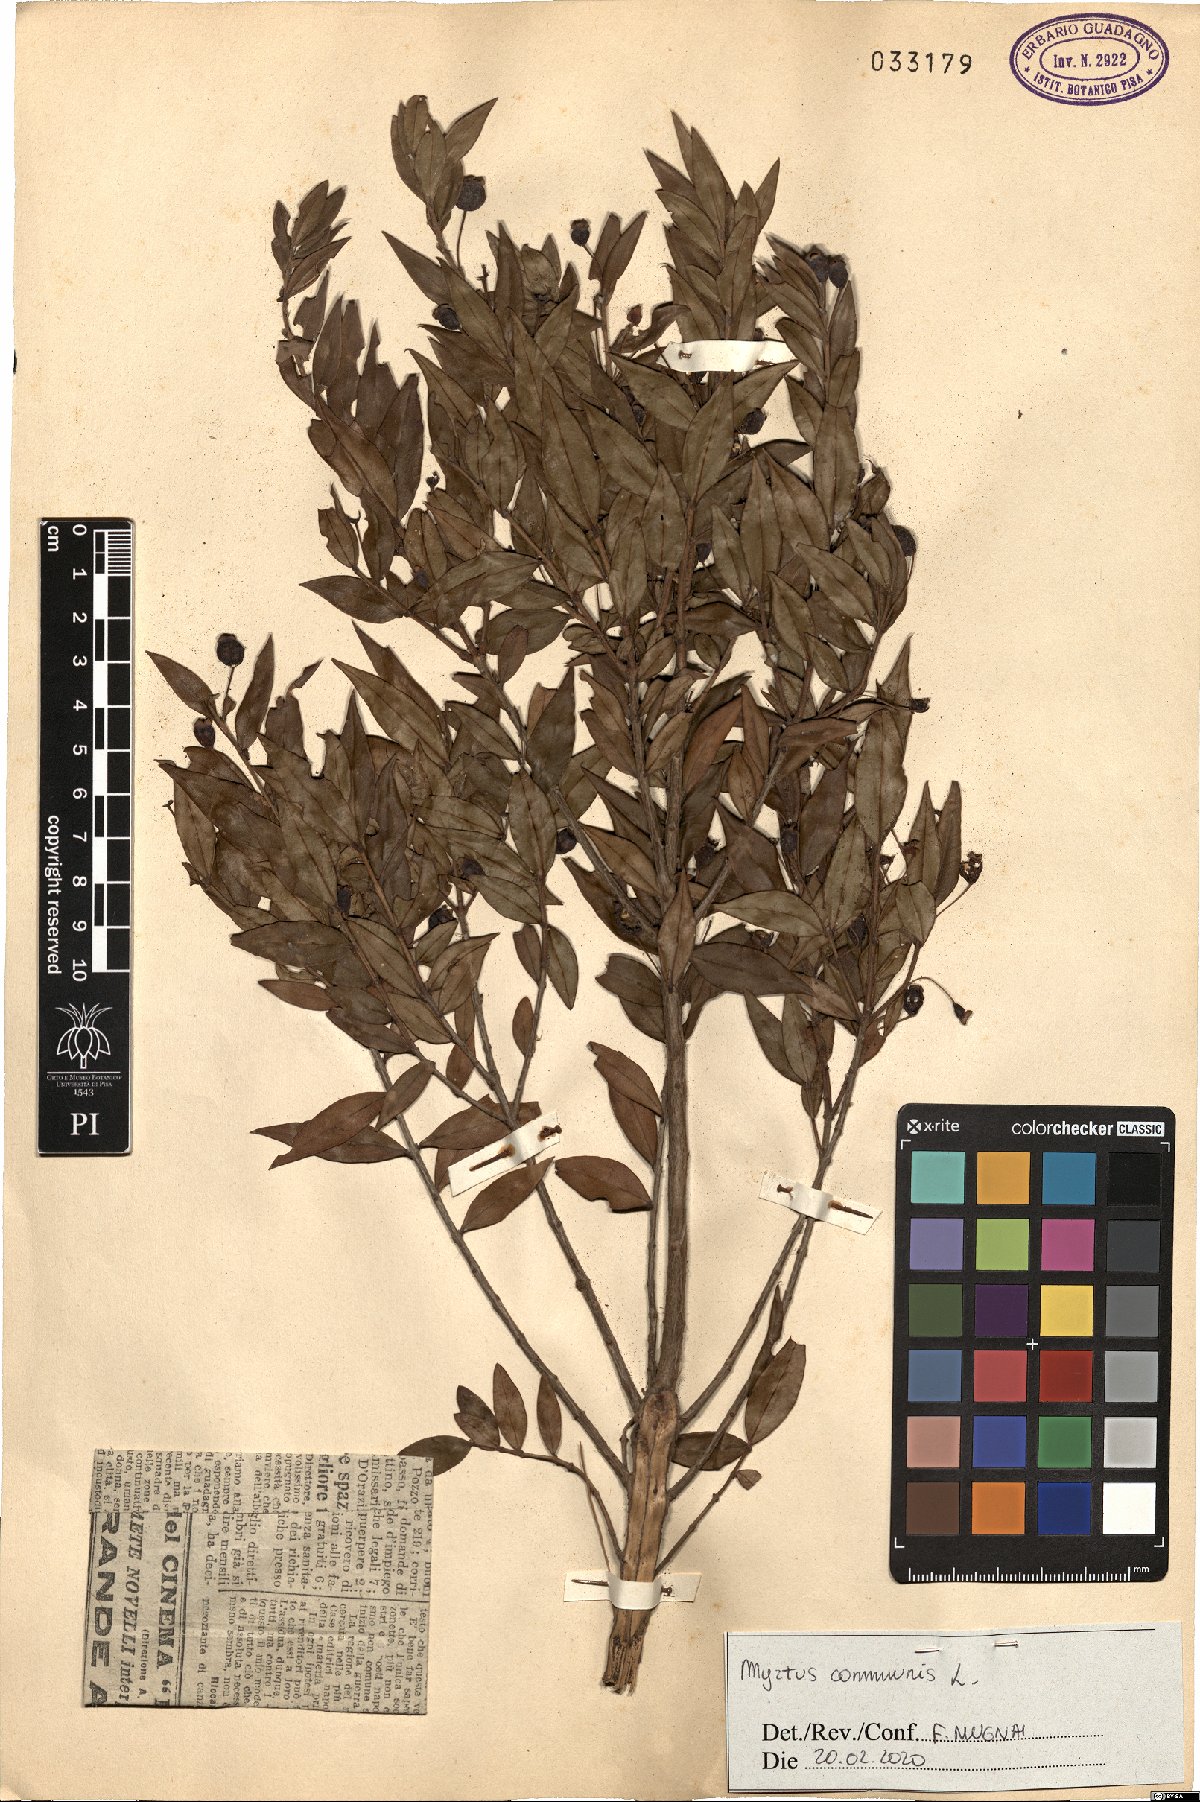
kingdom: Plantae
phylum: Tracheophyta
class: Magnoliopsida
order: Myrtales
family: Myrtaceae
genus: Myrtus
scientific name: Myrtus communis
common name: Myrtle
